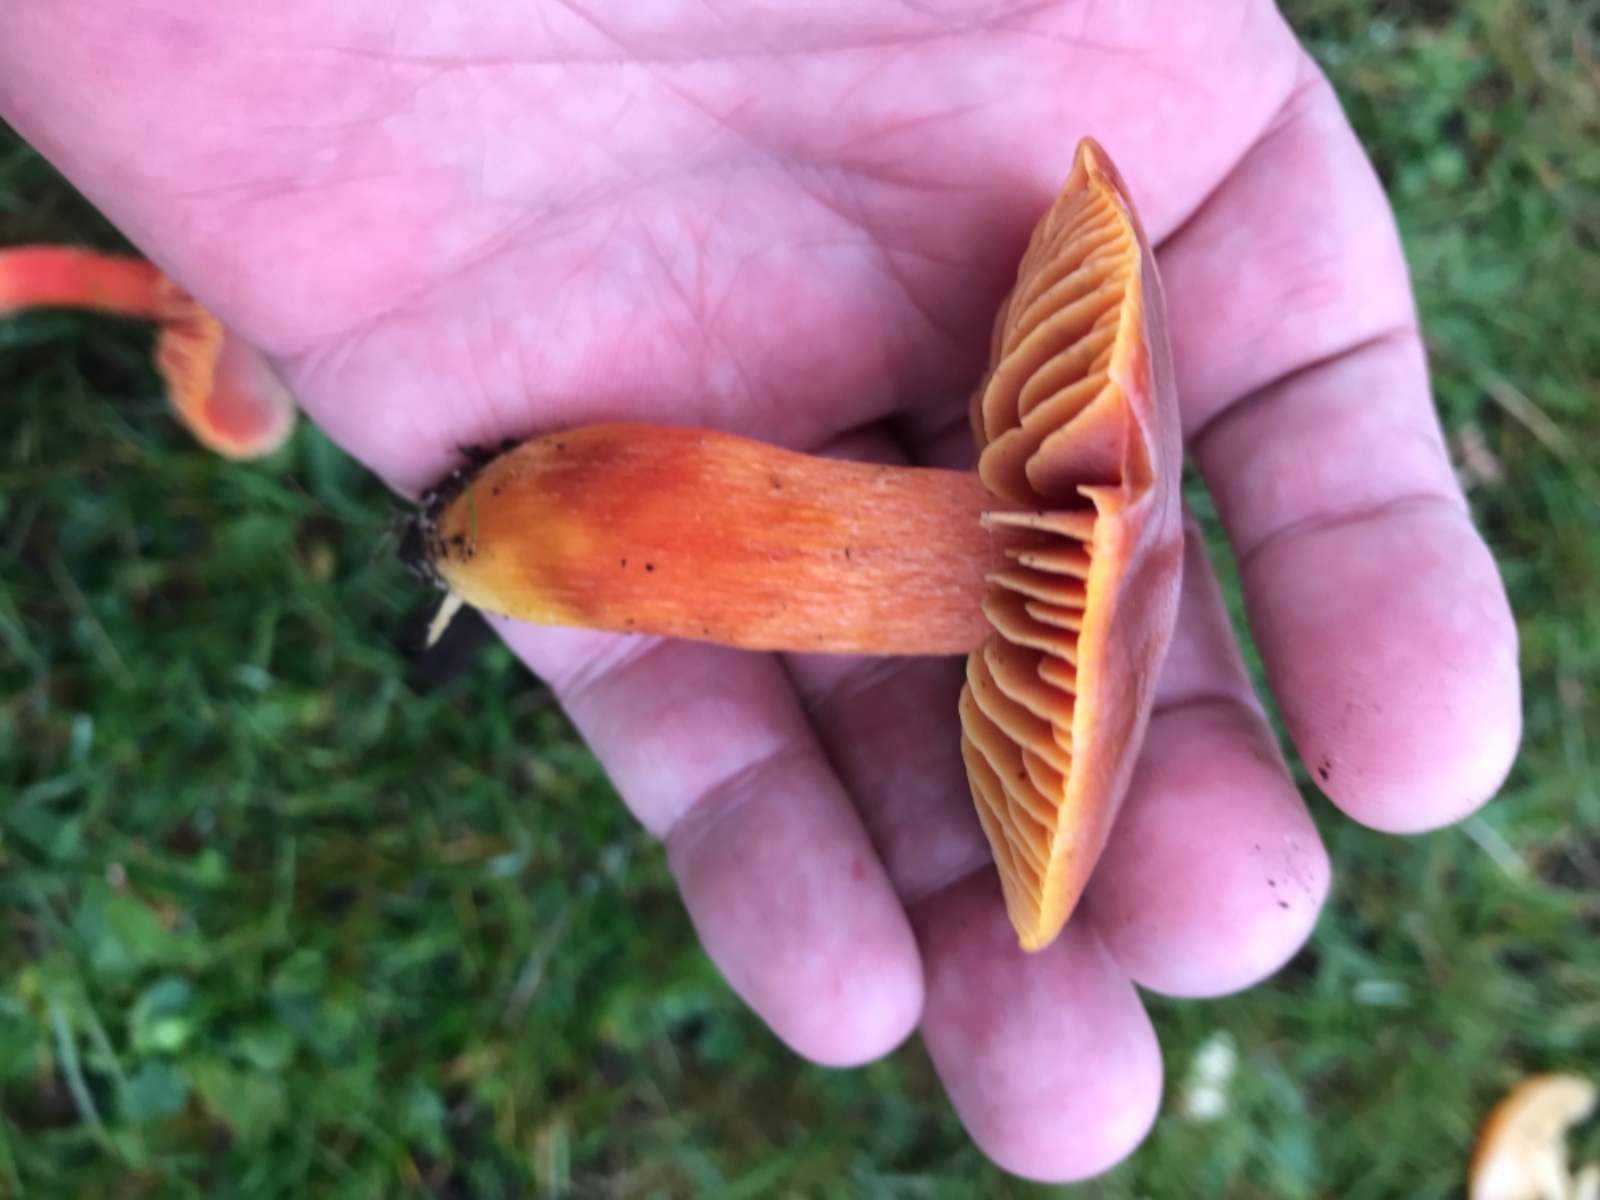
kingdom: Fungi
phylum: Basidiomycota
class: Agaricomycetes
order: Agaricales
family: Hygrophoraceae
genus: Hygrocybe
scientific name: Hygrocybe punicea
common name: skarlagen-vokshat
